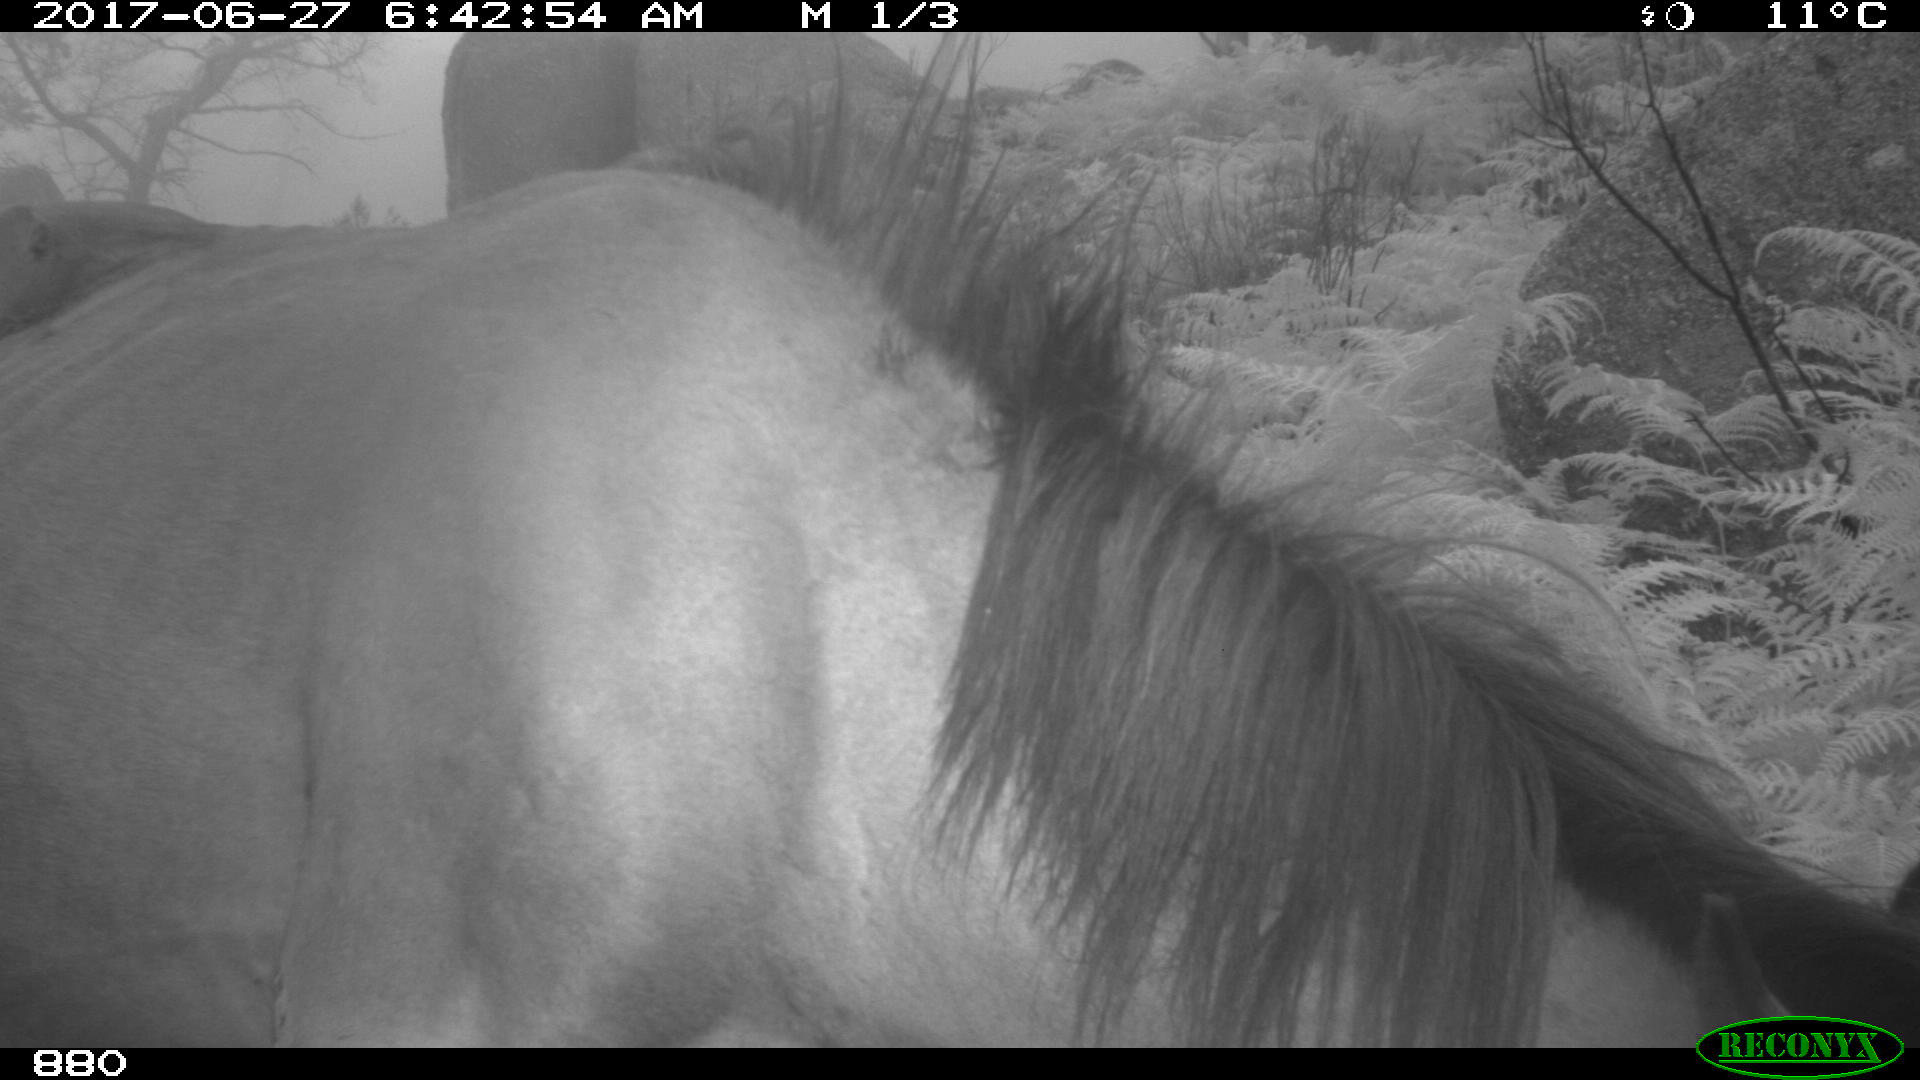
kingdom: Animalia
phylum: Chordata
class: Mammalia
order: Perissodactyla
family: Equidae
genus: Equus
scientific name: Equus caballus
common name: Horse
